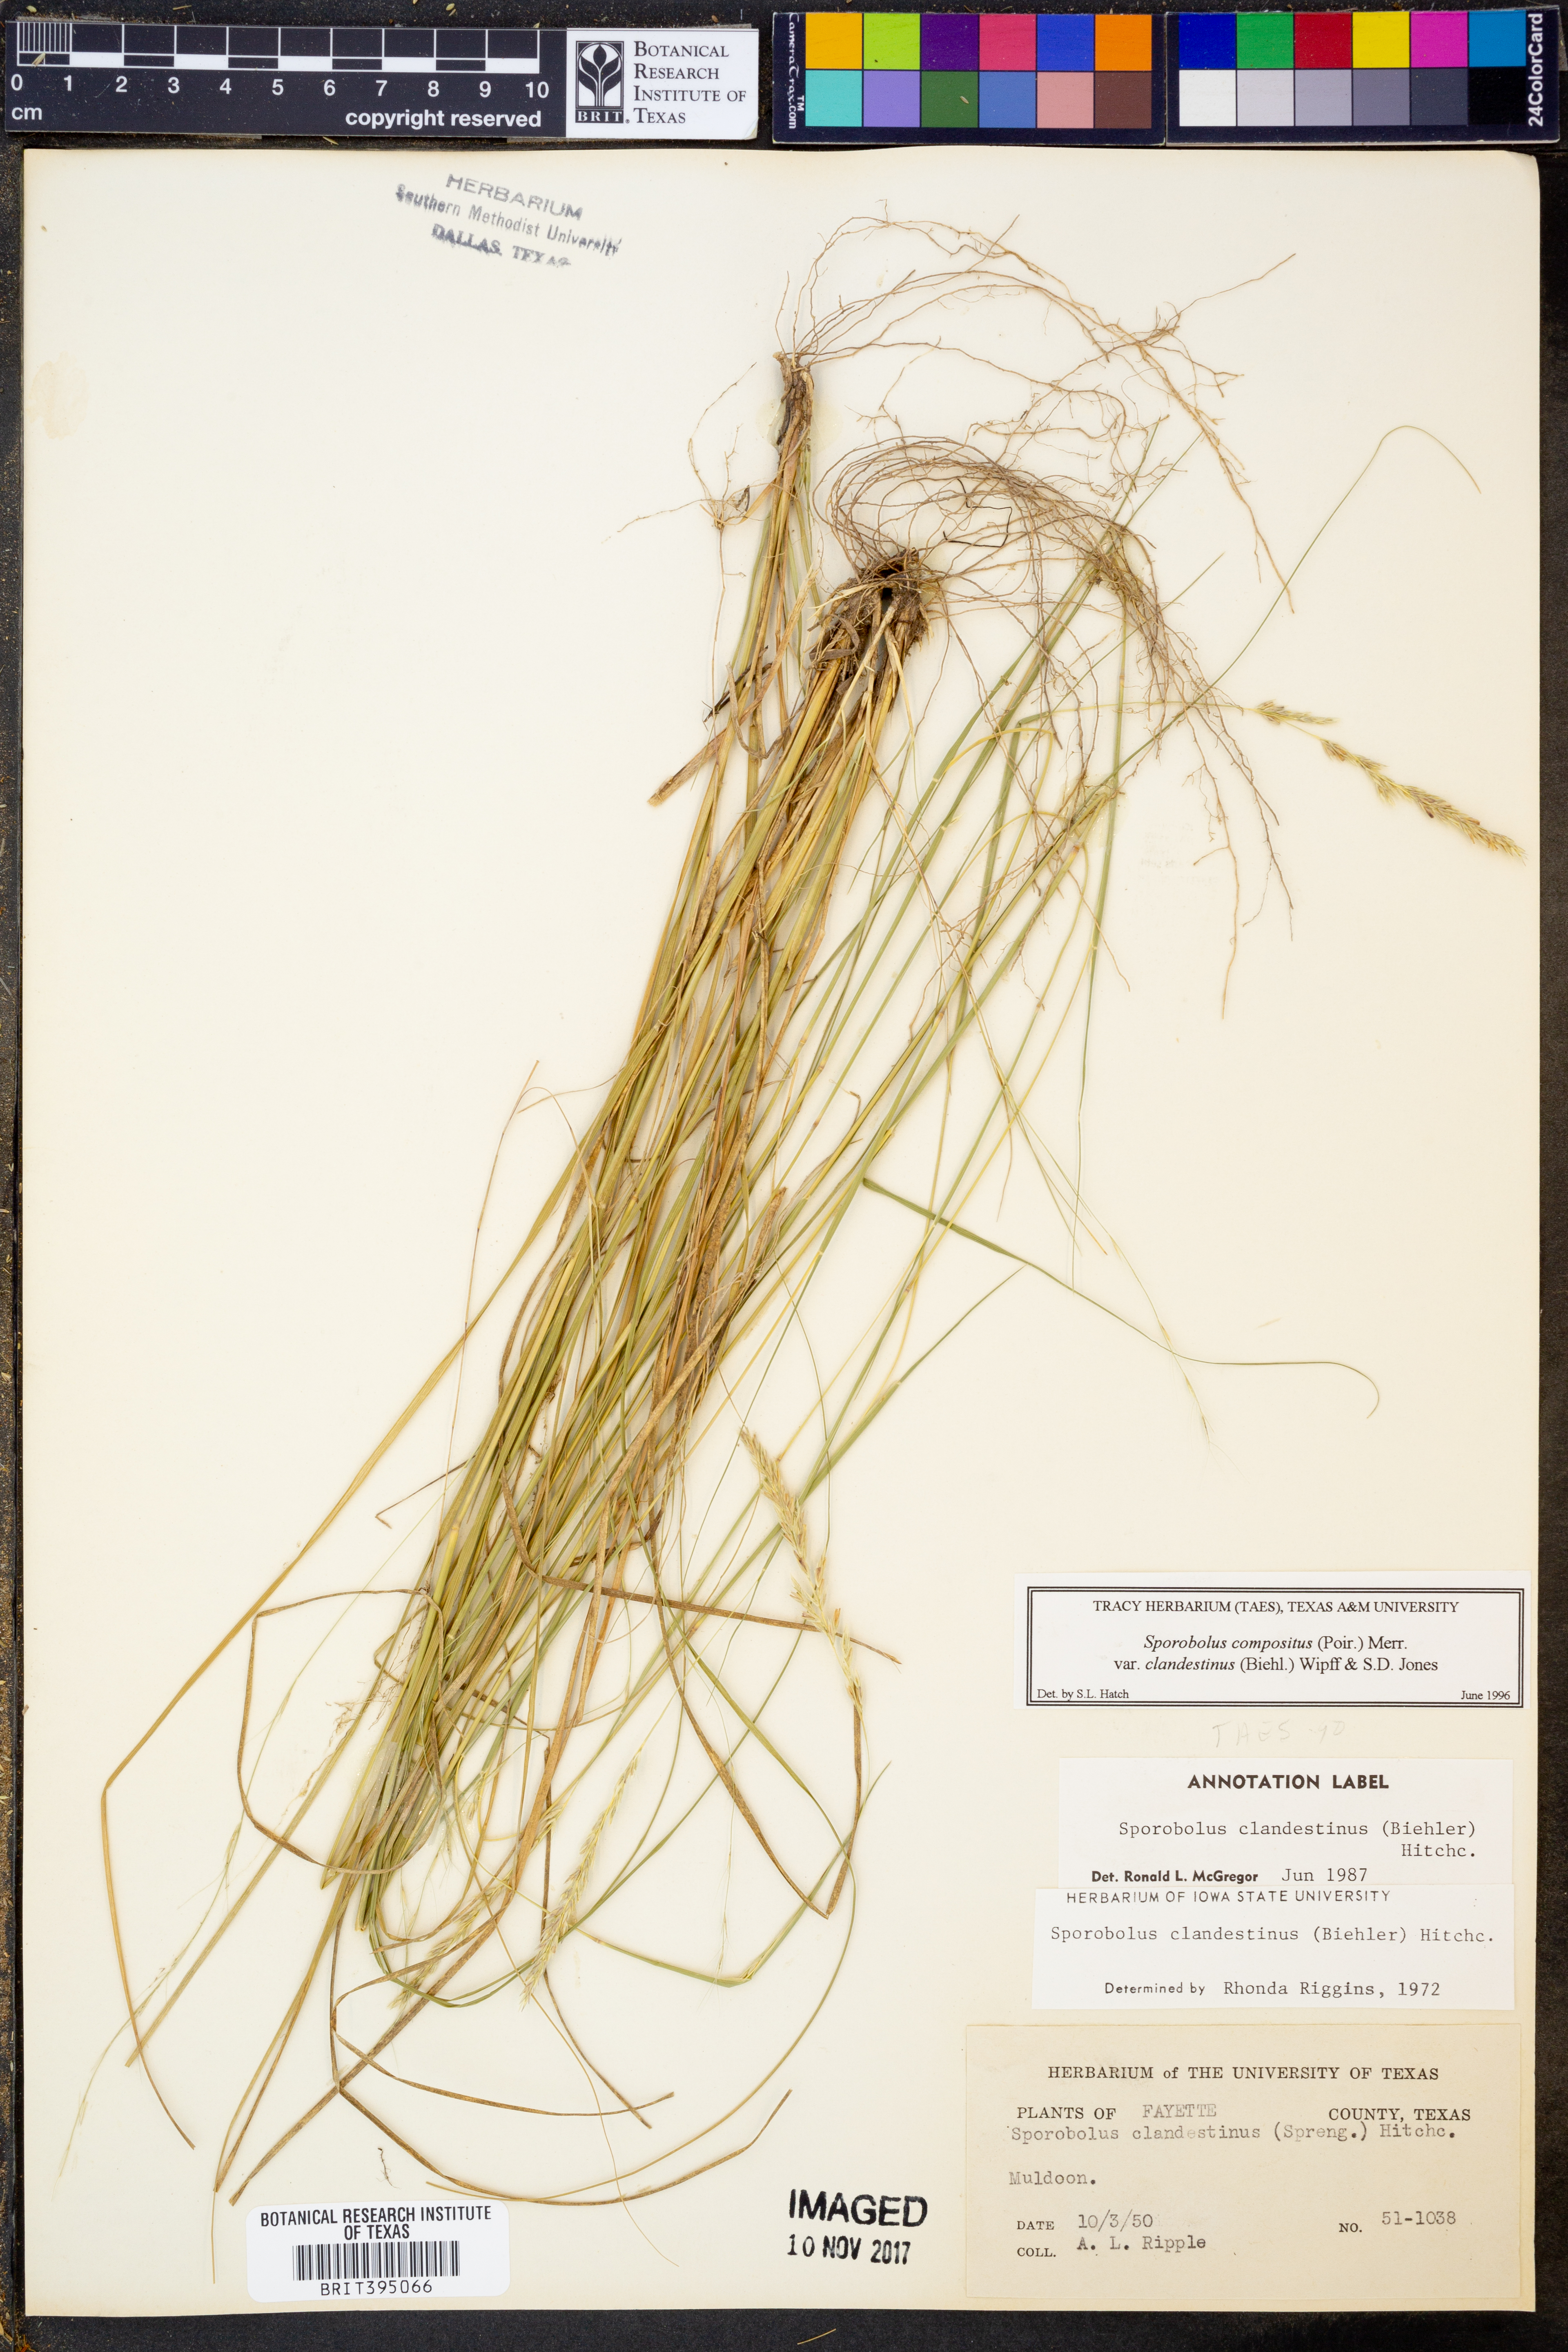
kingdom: Plantae
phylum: Tracheophyta
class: Liliopsida
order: Poales
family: Poaceae
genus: Sporobolus
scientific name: Sporobolus clandestinus
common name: Hidden dropseed
